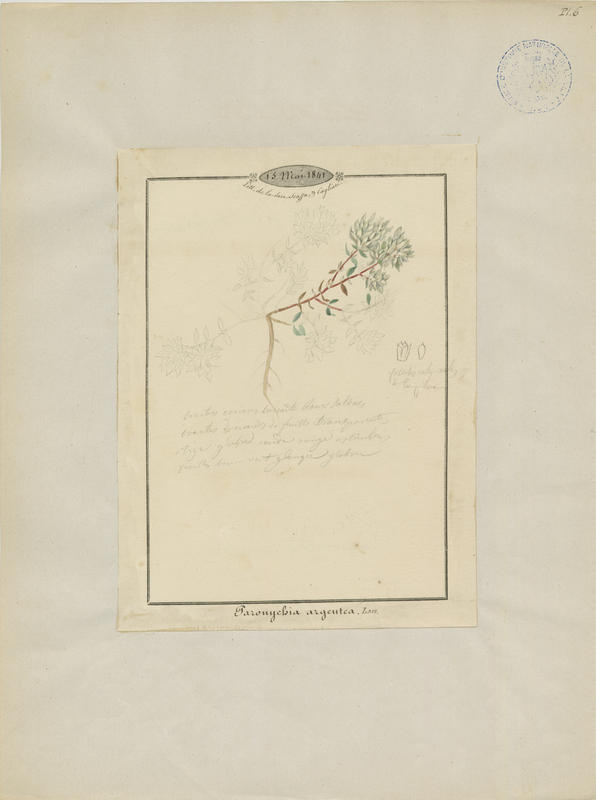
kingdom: Plantae
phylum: Tracheophyta
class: Magnoliopsida
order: Caryophyllales
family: Caryophyllaceae
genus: Paronychia
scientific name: Paronychia argentea
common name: Silver nailroot
